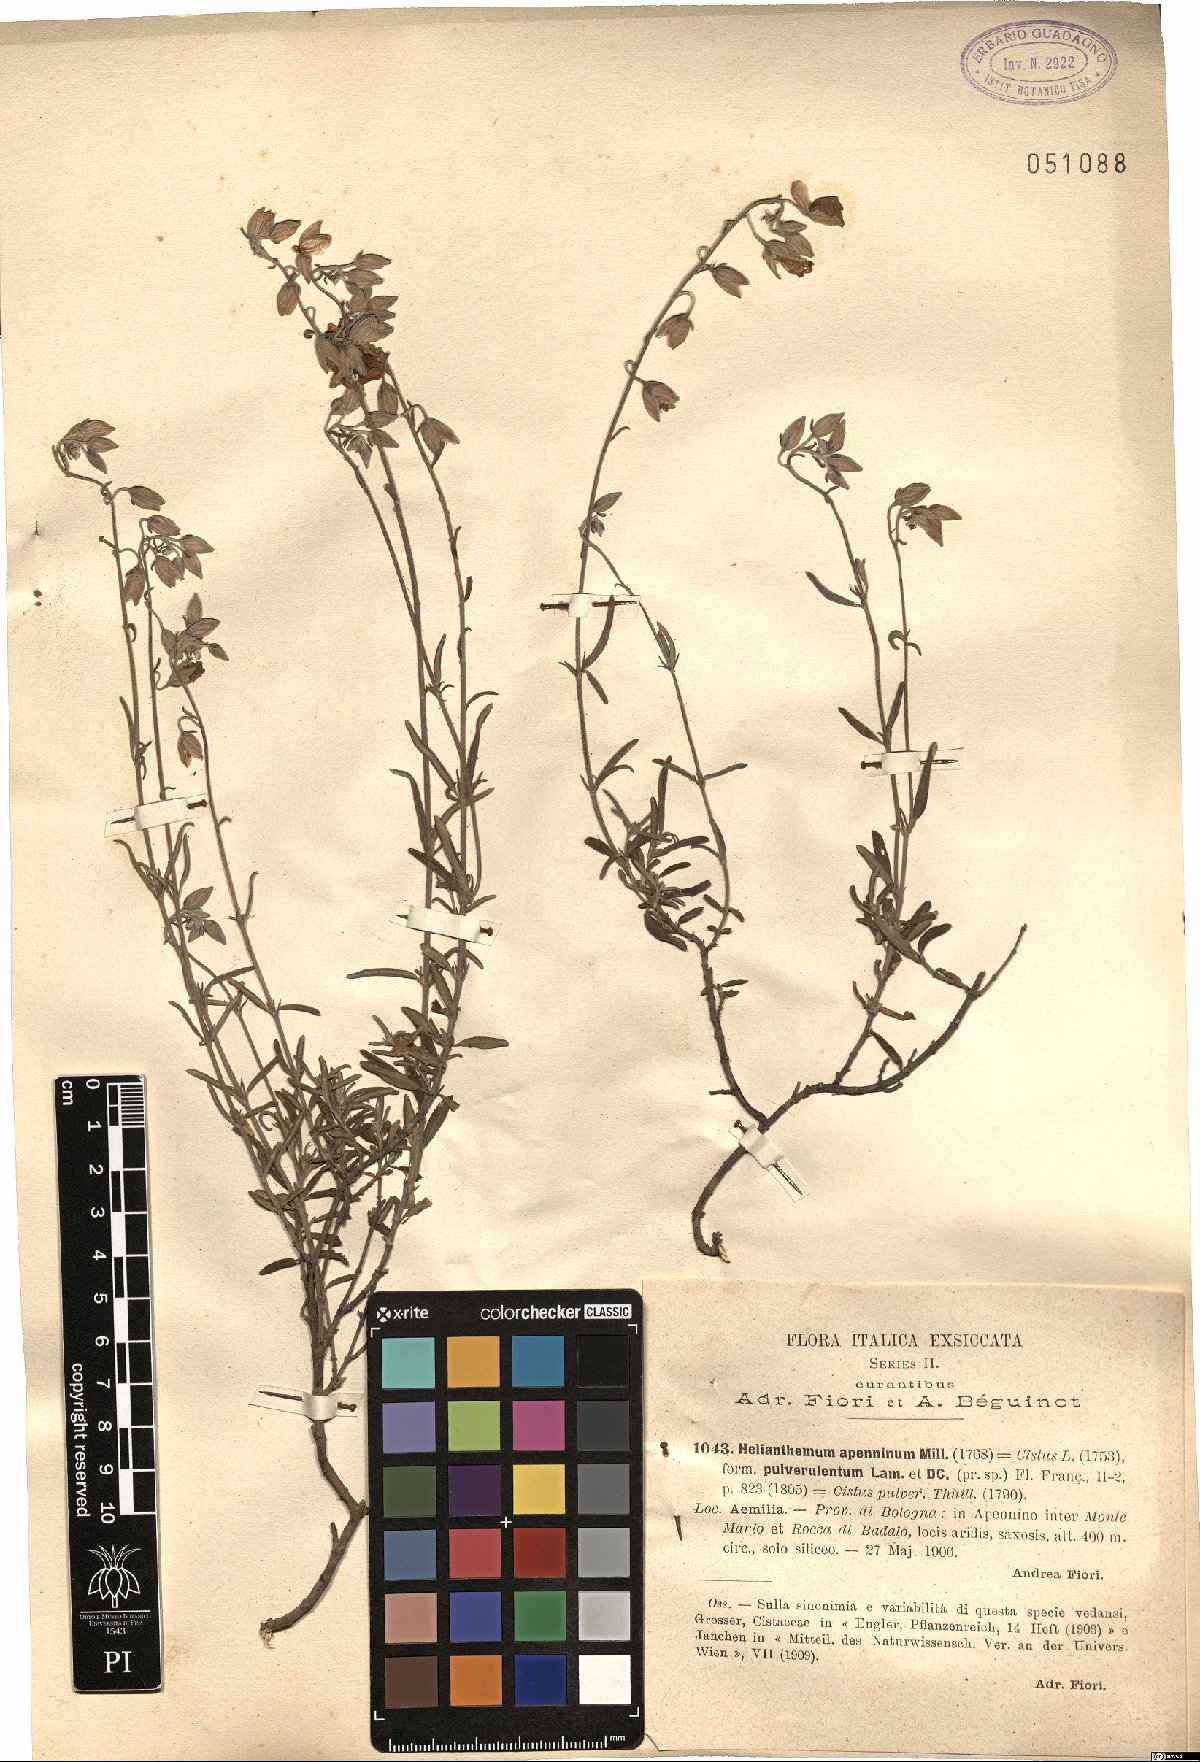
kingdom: Plantae
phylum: Tracheophyta
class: Magnoliopsida
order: Malvales
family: Cistaceae
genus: Helianthemum
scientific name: Helianthemum apenninum
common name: White rock-rose
